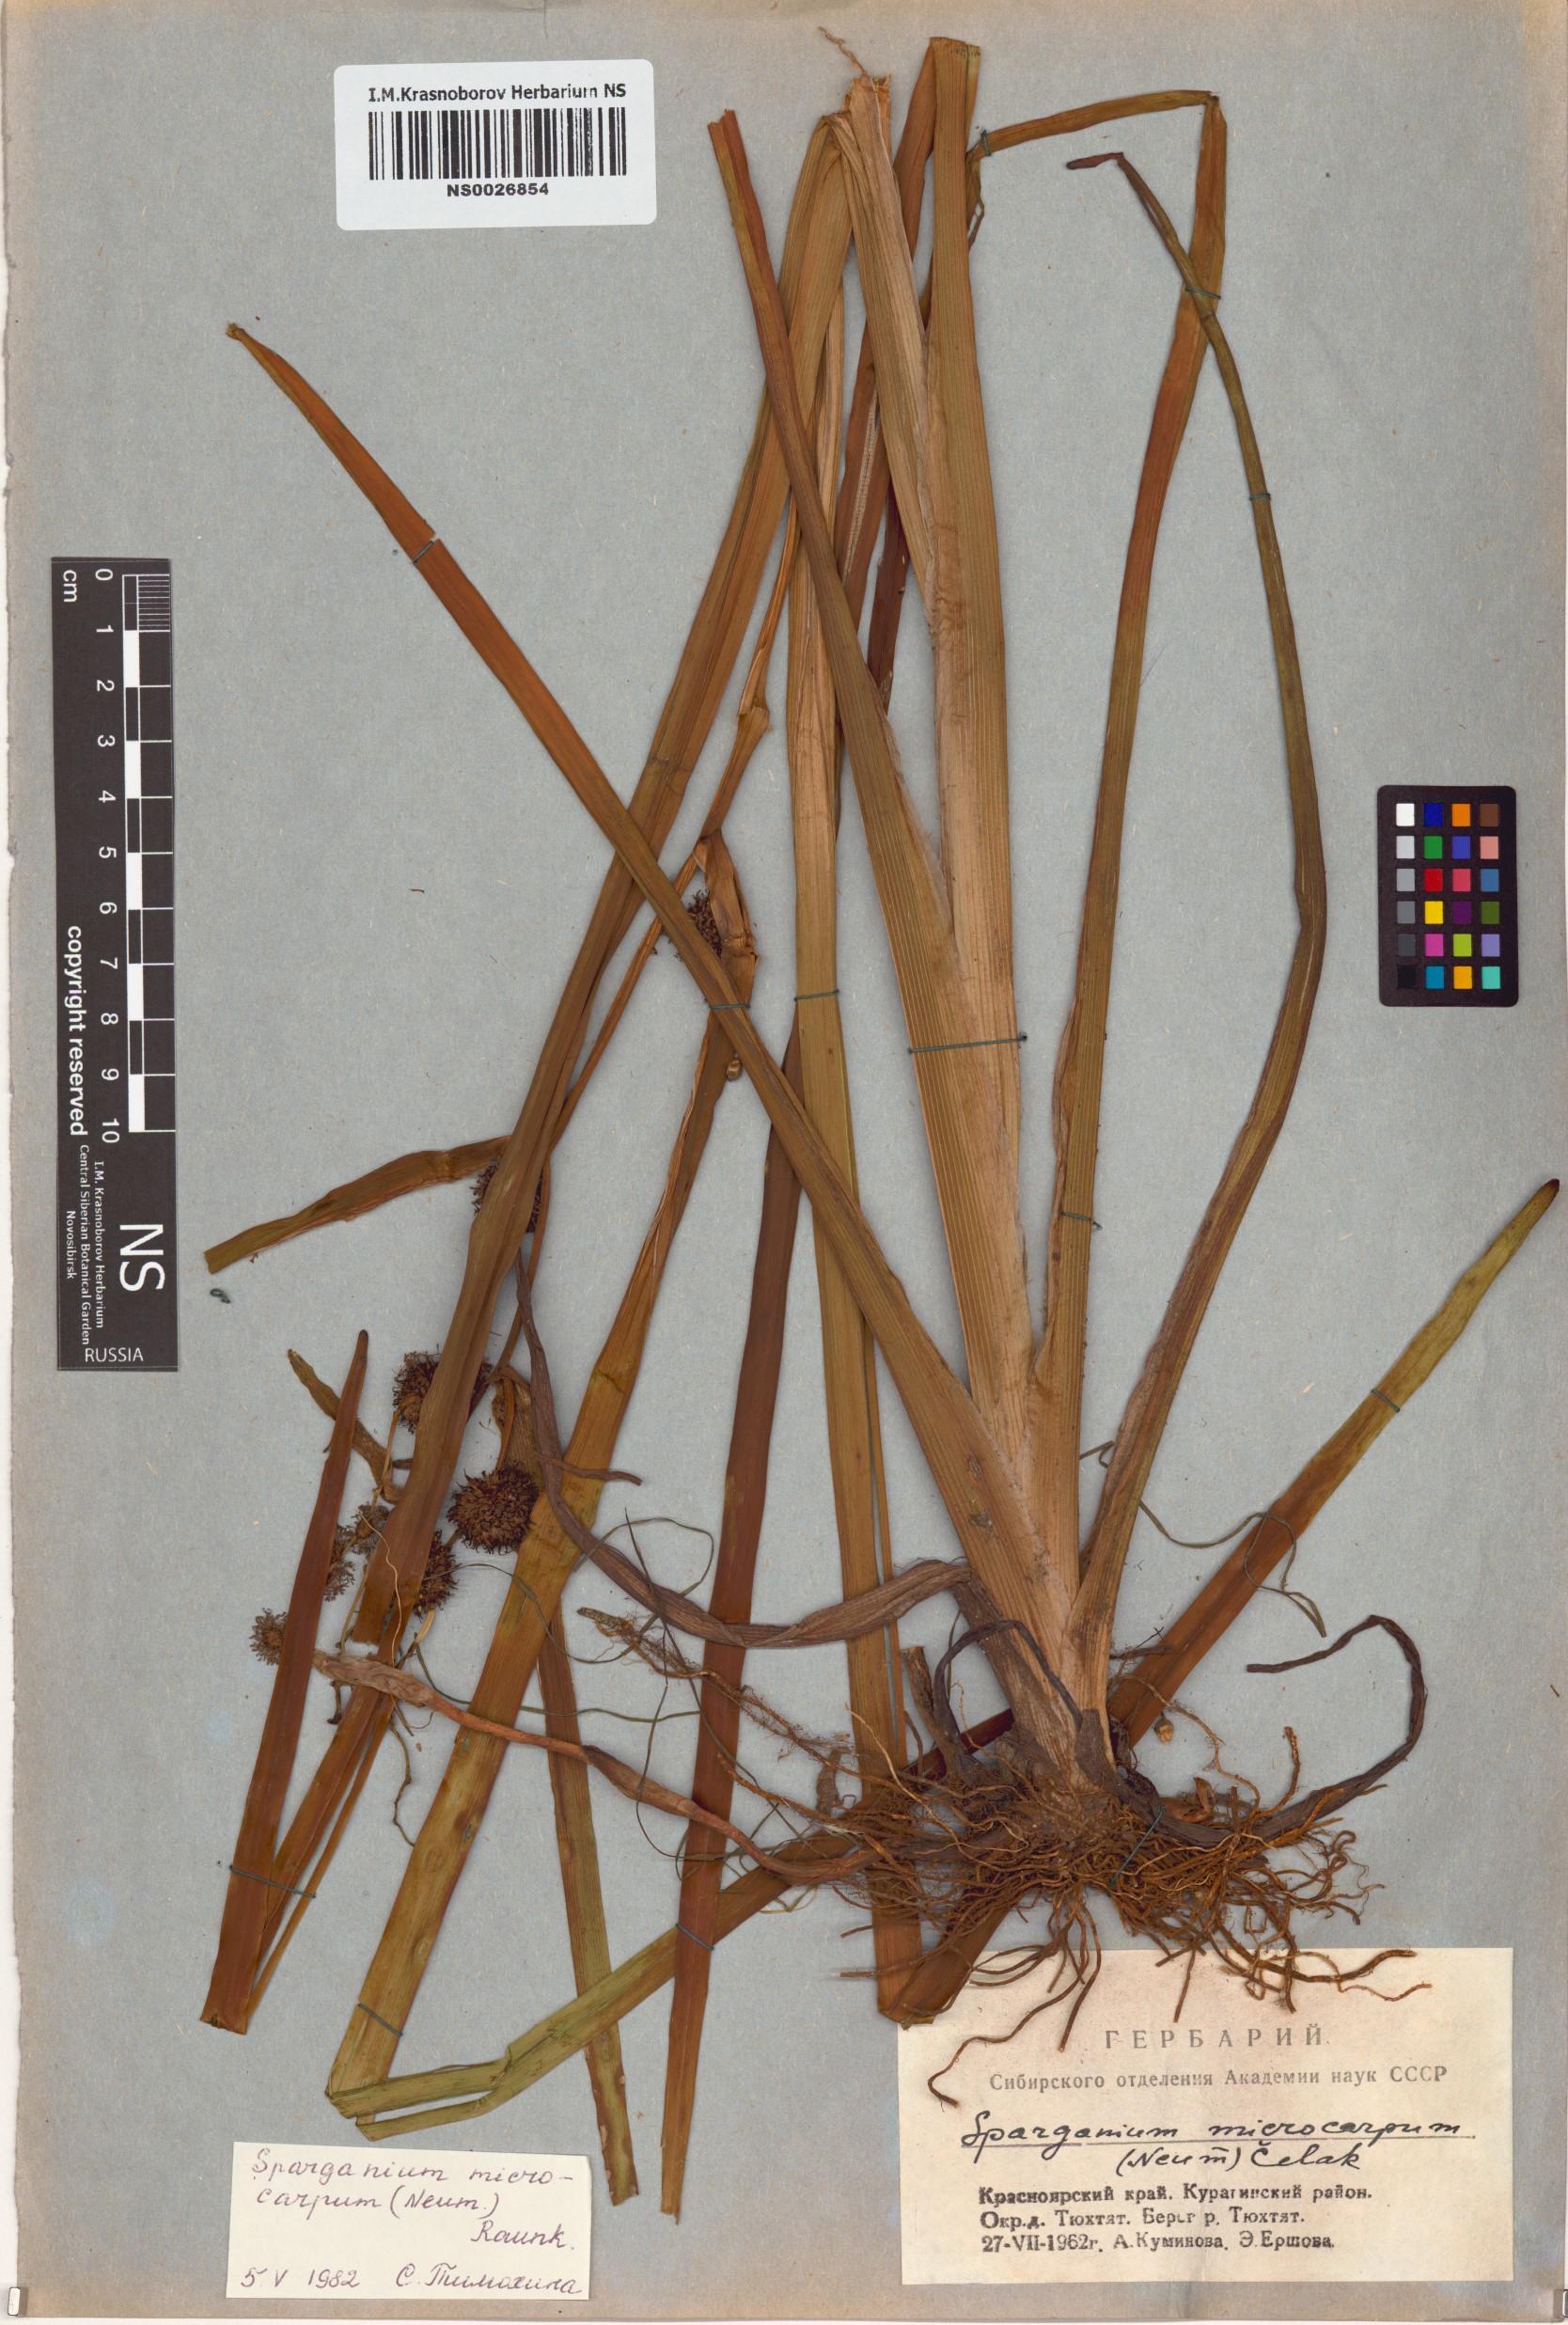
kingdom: Plantae
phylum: Tracheophyta
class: Liliopsida
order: Poales
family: Typhaceae
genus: Sparganium
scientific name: Sparganium erectum
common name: Branched bur-reed
